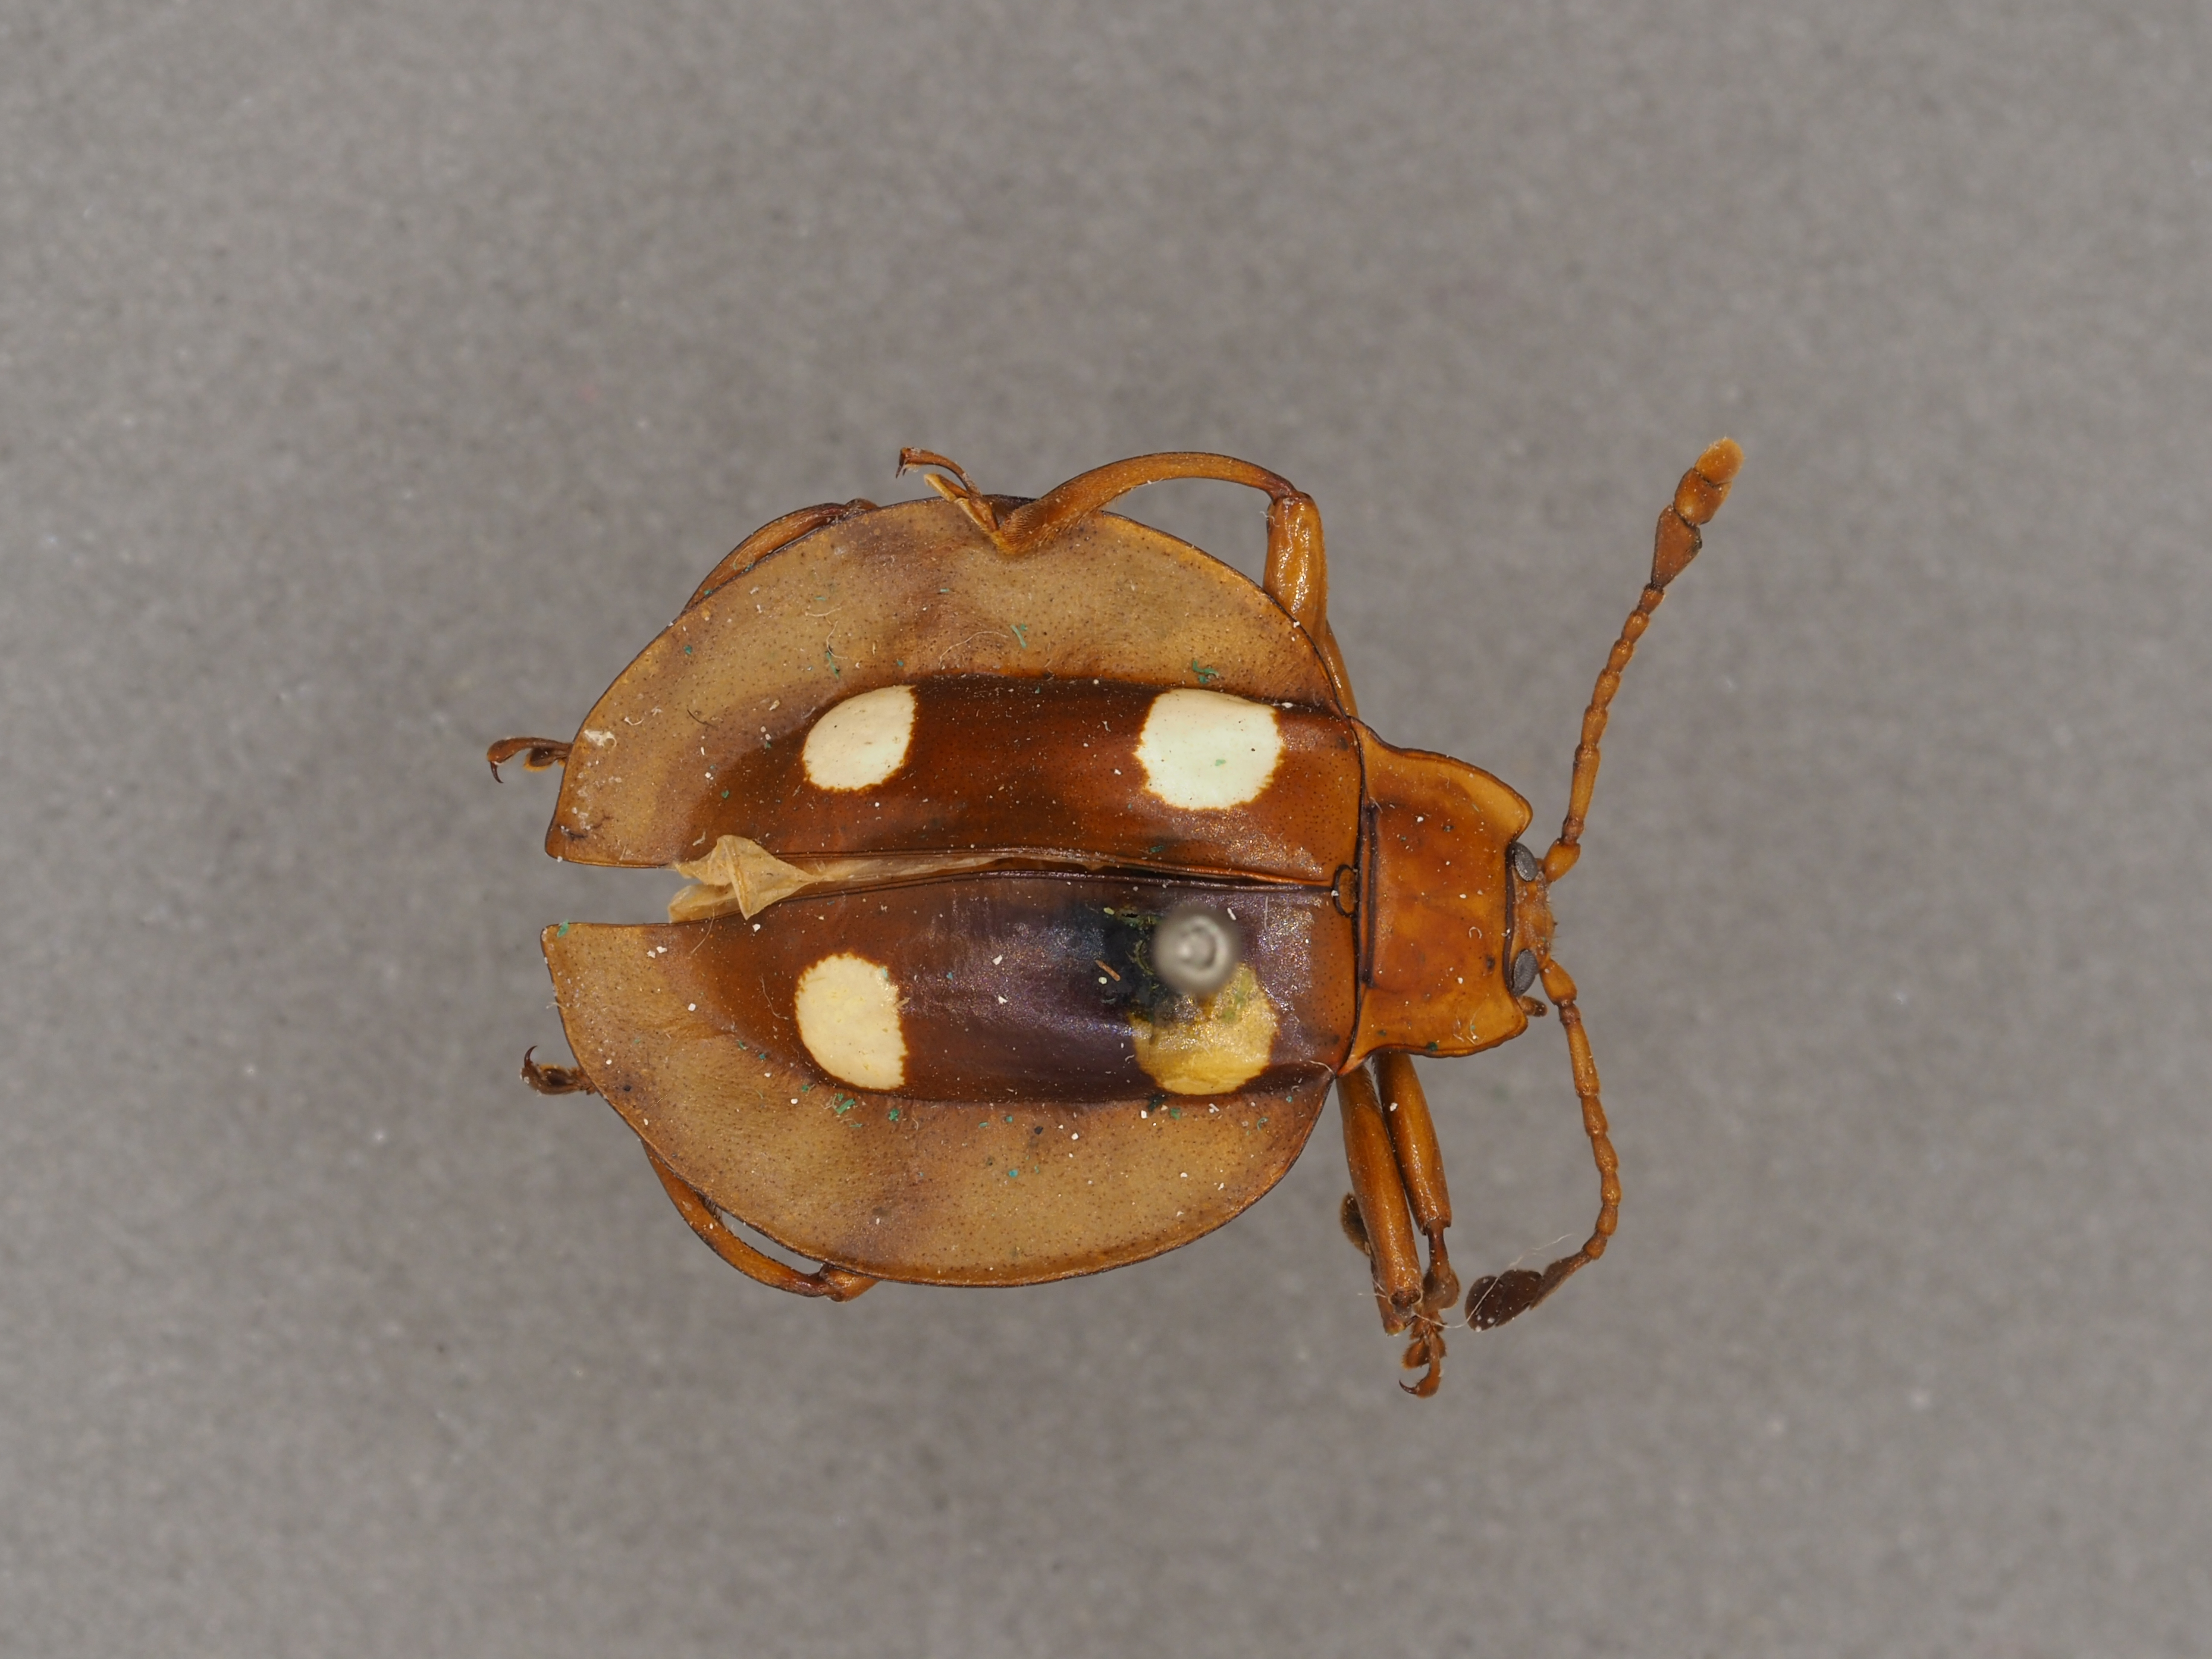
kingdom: Animalia
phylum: Arthropoda
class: Insecta
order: Coleoptera
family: Endomychidae
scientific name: Endomychidae
